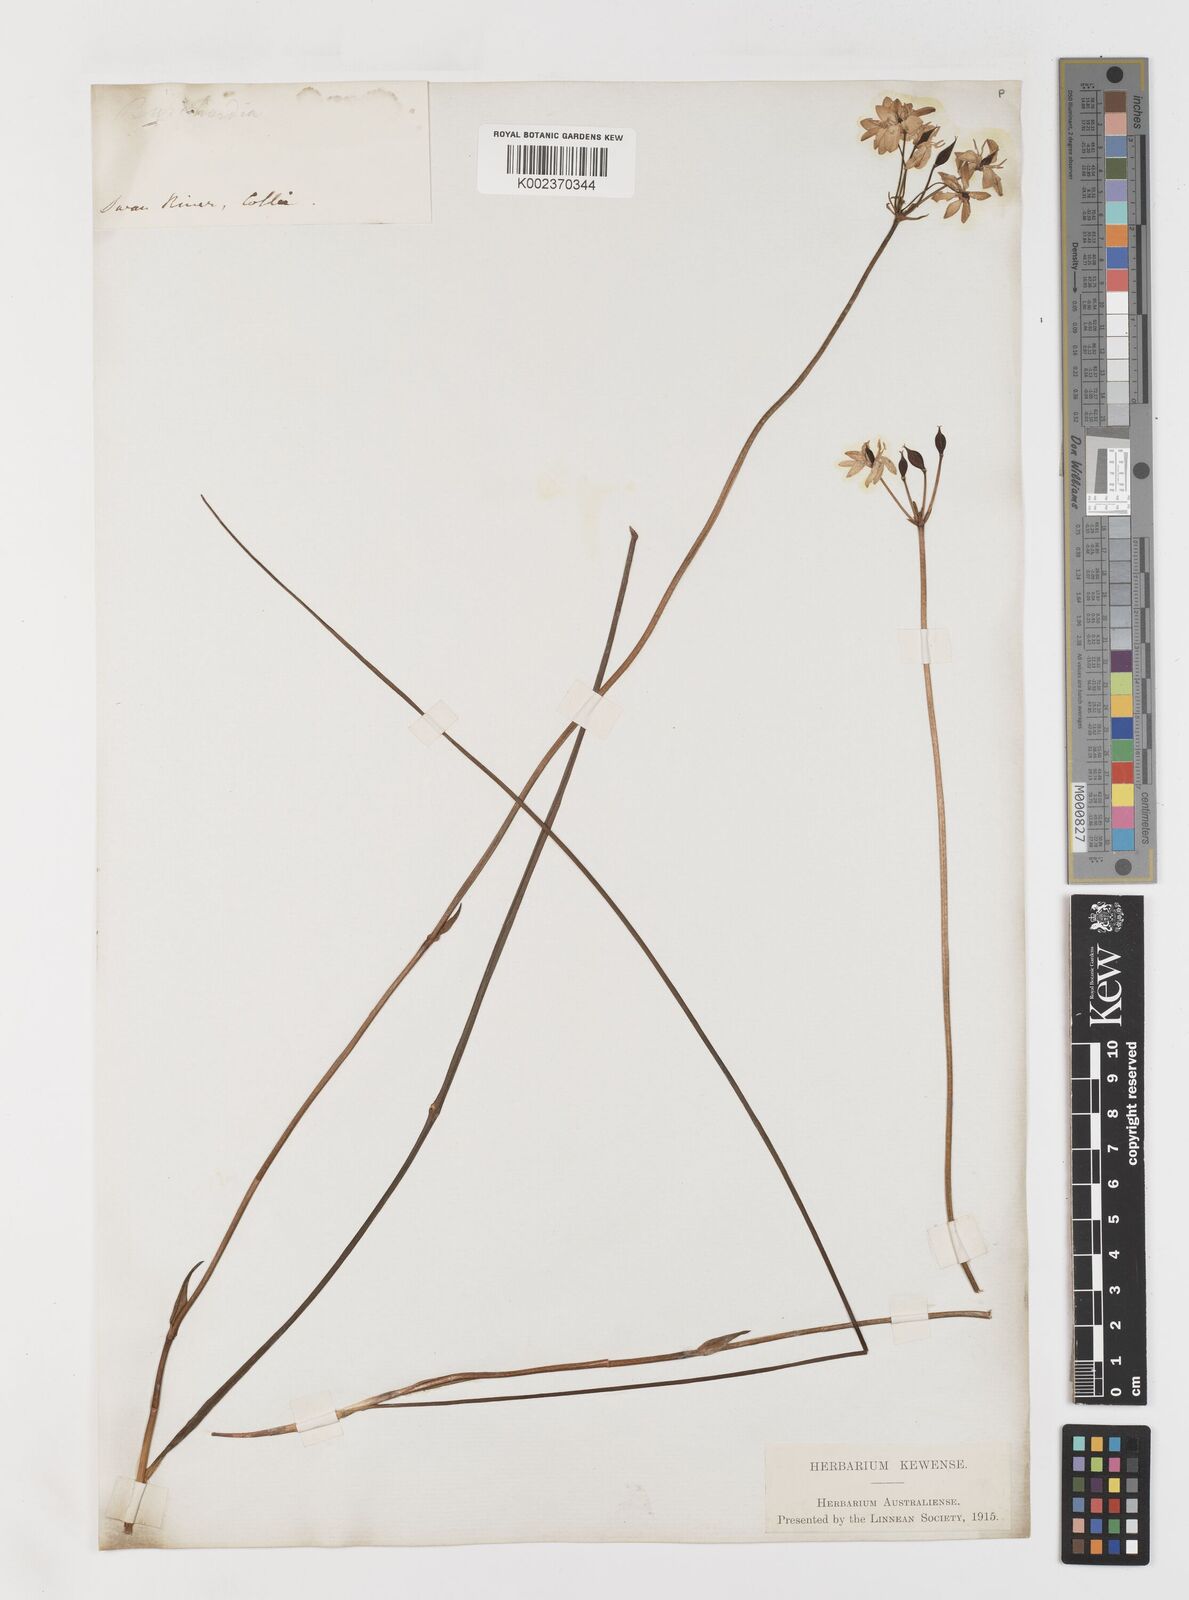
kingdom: Plantae
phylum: Tracheophyta
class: Liliopsida
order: Liliales
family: Colchicaceae
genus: Burchardia
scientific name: Burchardia umbellata
